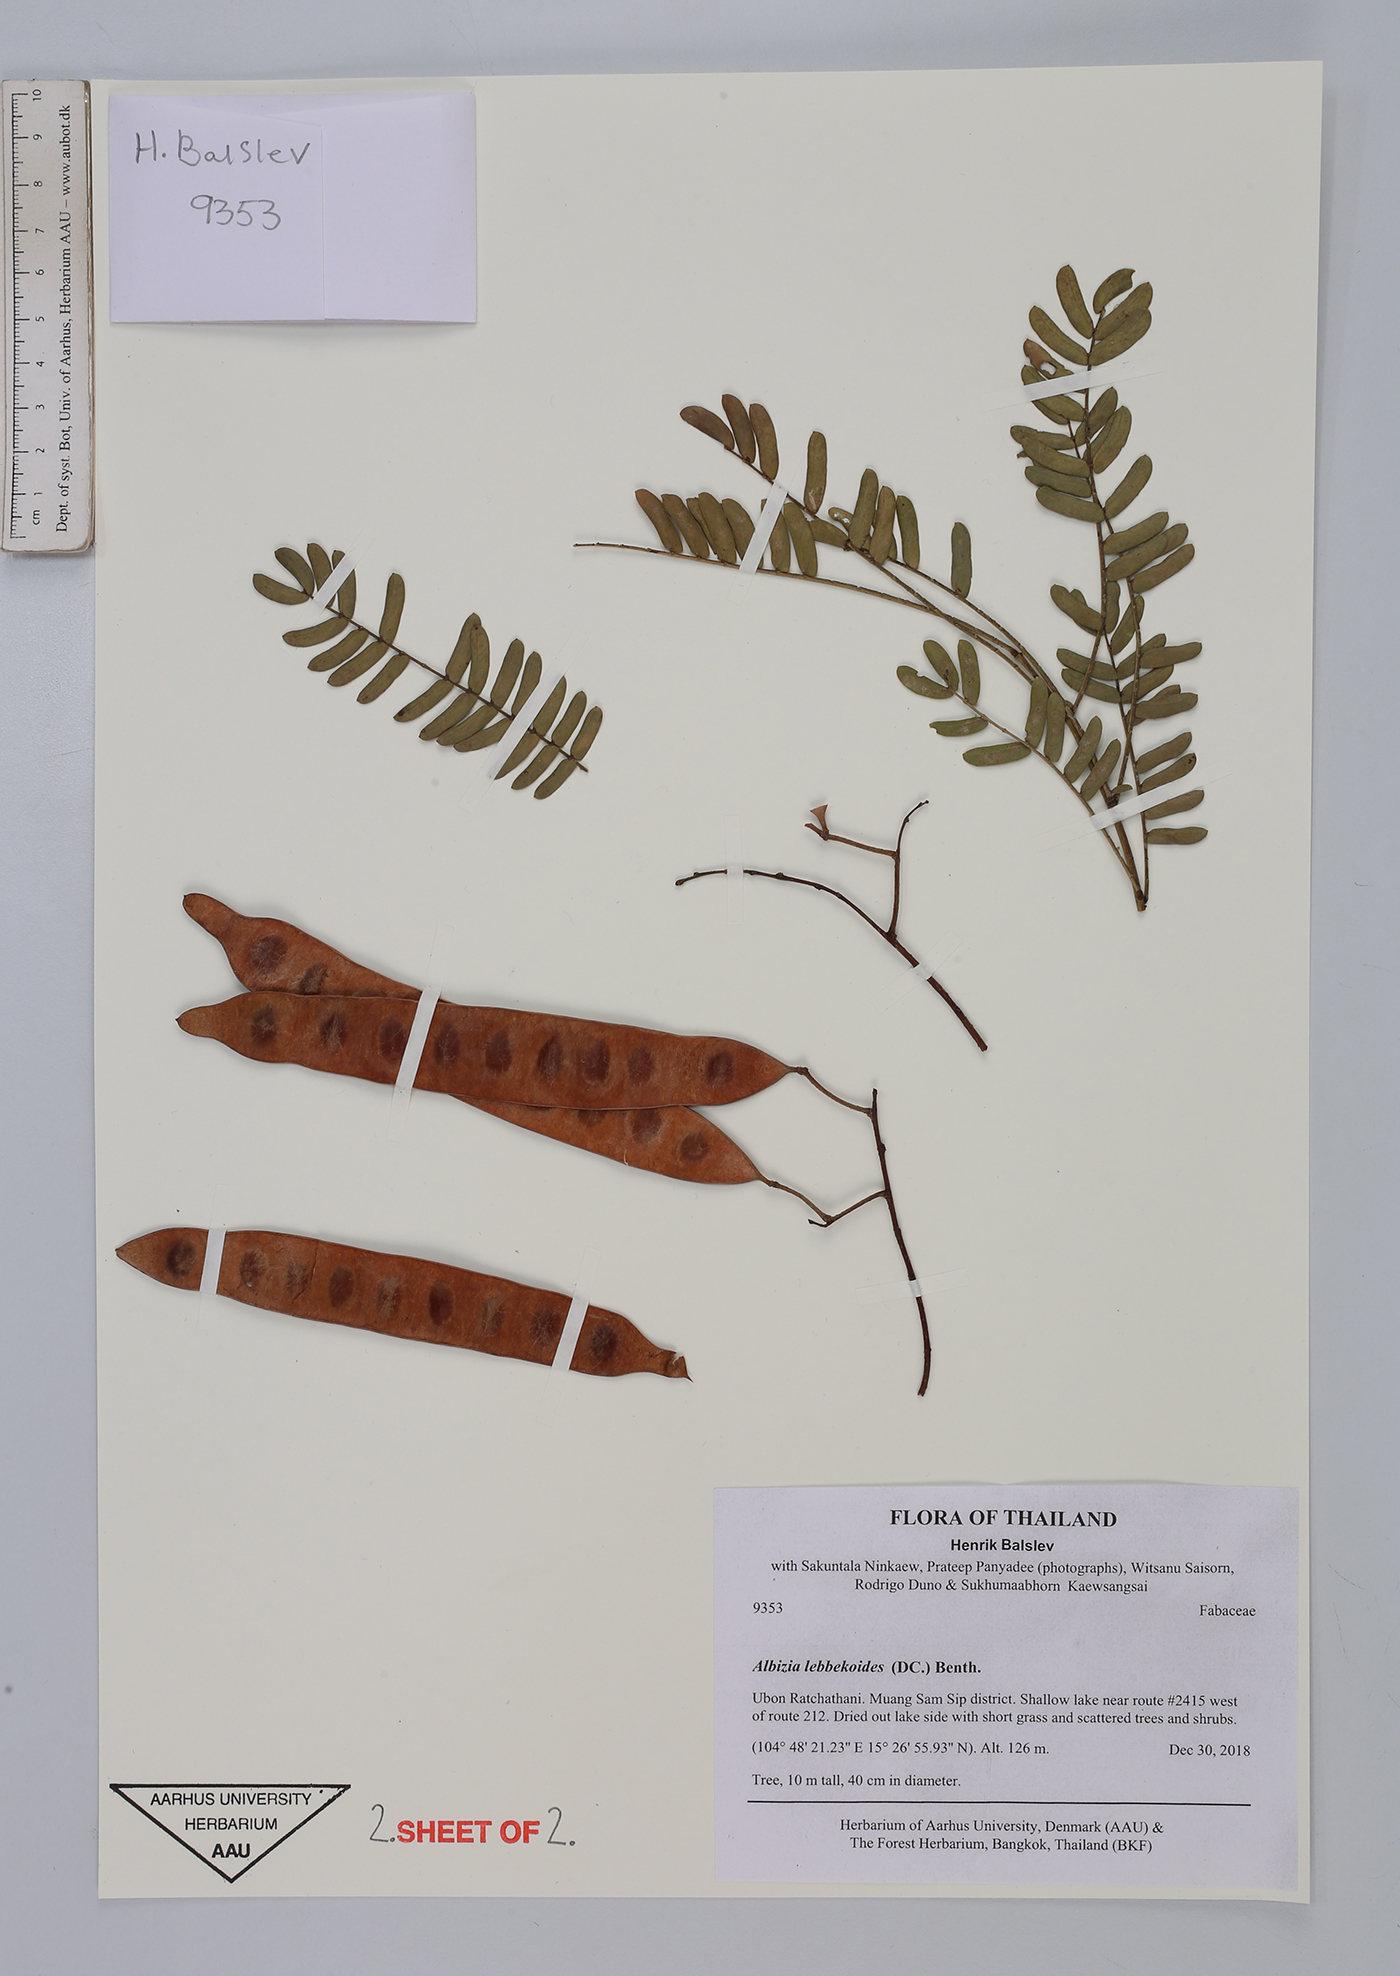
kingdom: Plantae
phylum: Tracheophyta
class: Magnoliopsida
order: Fabales
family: Fabaceae
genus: Albizia
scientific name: Albizia lebbekoides
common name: Indian albizia
